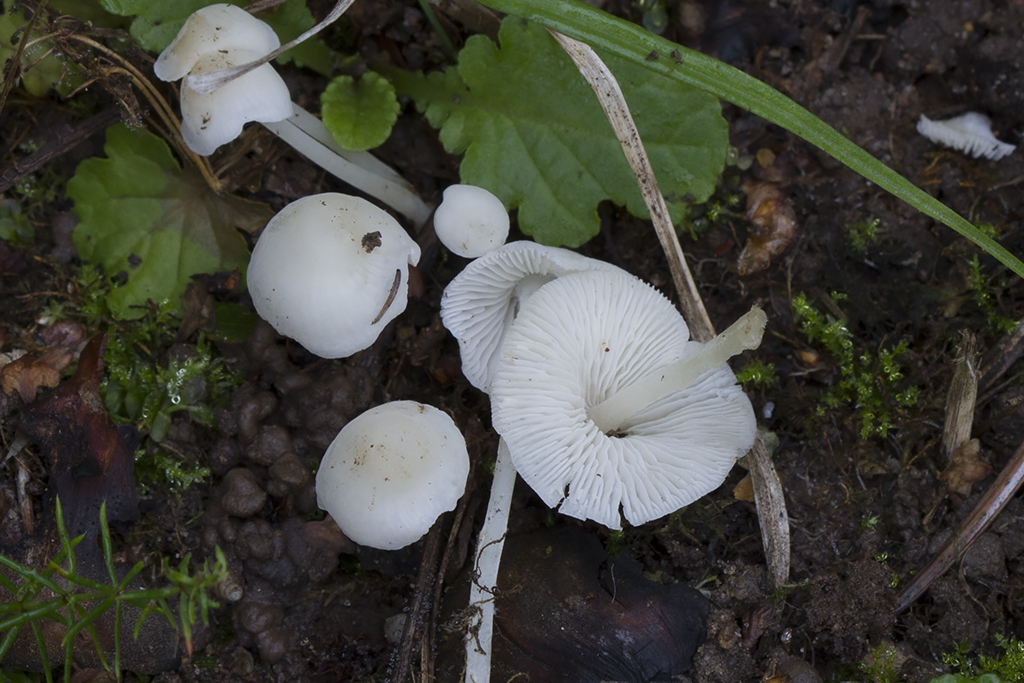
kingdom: Fungi
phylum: Basidiomycota
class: Agaricomycetes
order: Agaricales
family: Mycenaceae
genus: Hemimycena
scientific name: Hemimycena cucullata
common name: tætbladet huesvamp
